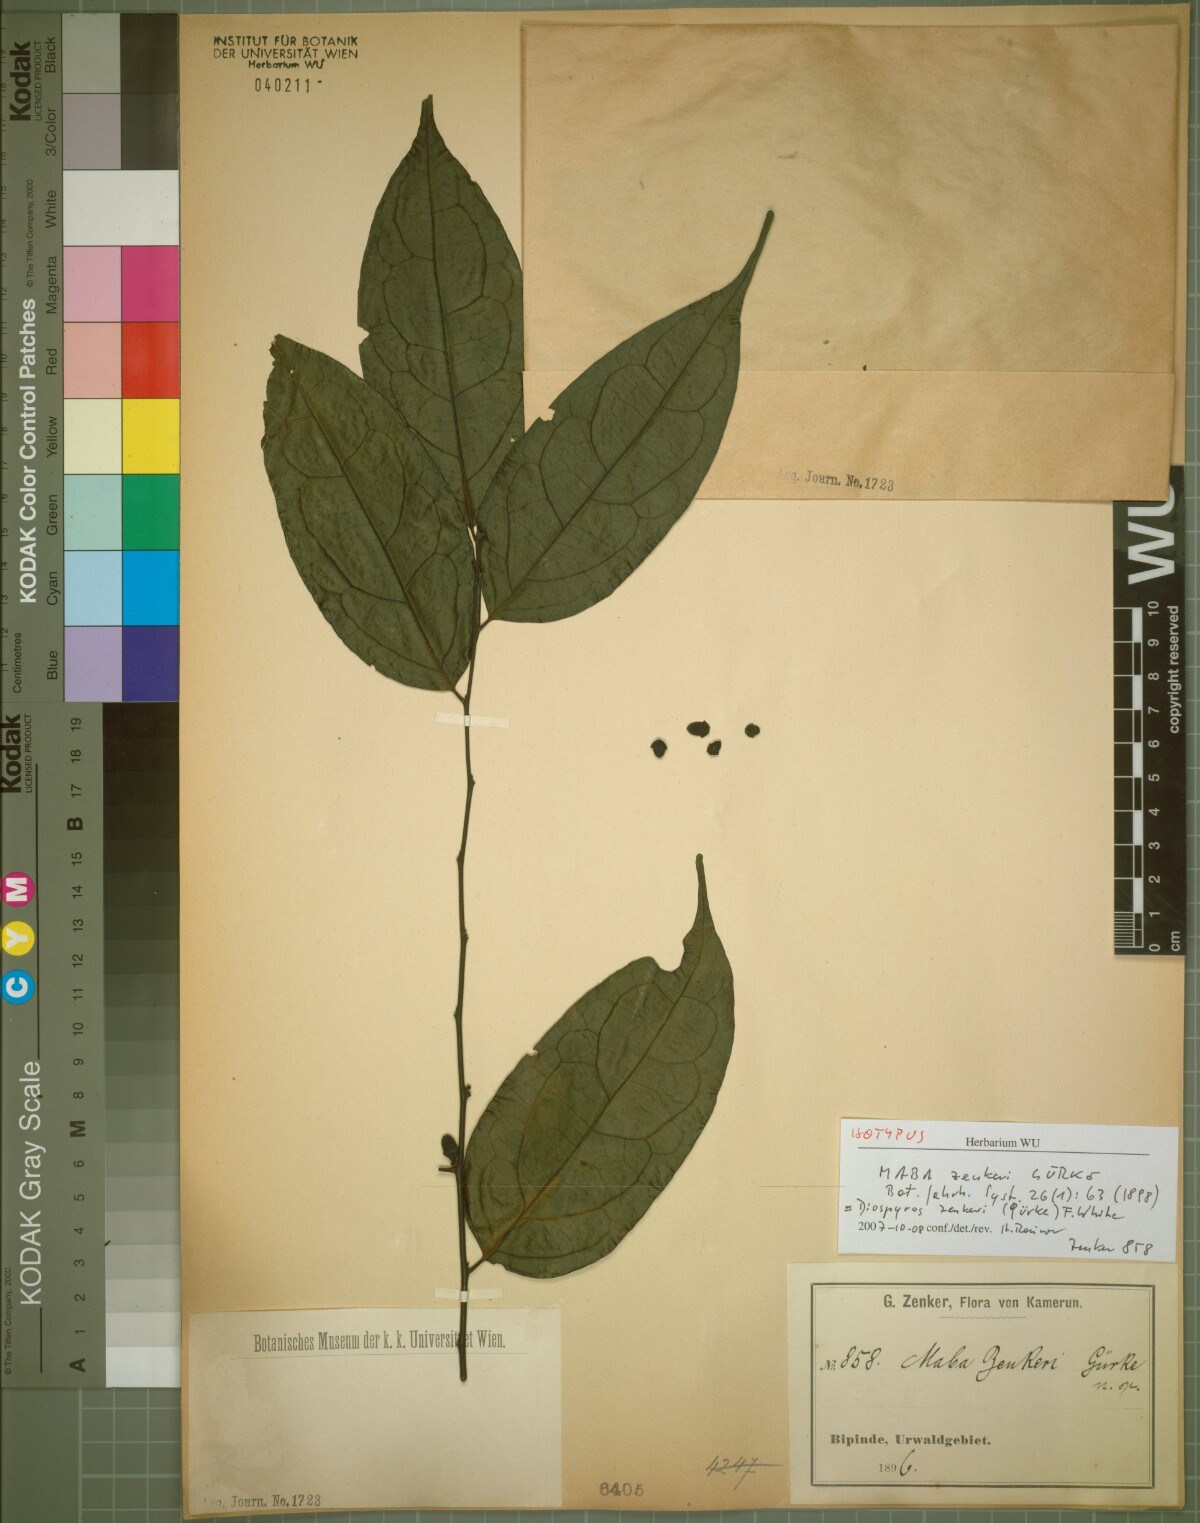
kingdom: Plantae
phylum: Tracheophyta
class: Magnoliopsida
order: Ericales
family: Ebenaceae
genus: Diospyros
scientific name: Diospyros zenkeri
